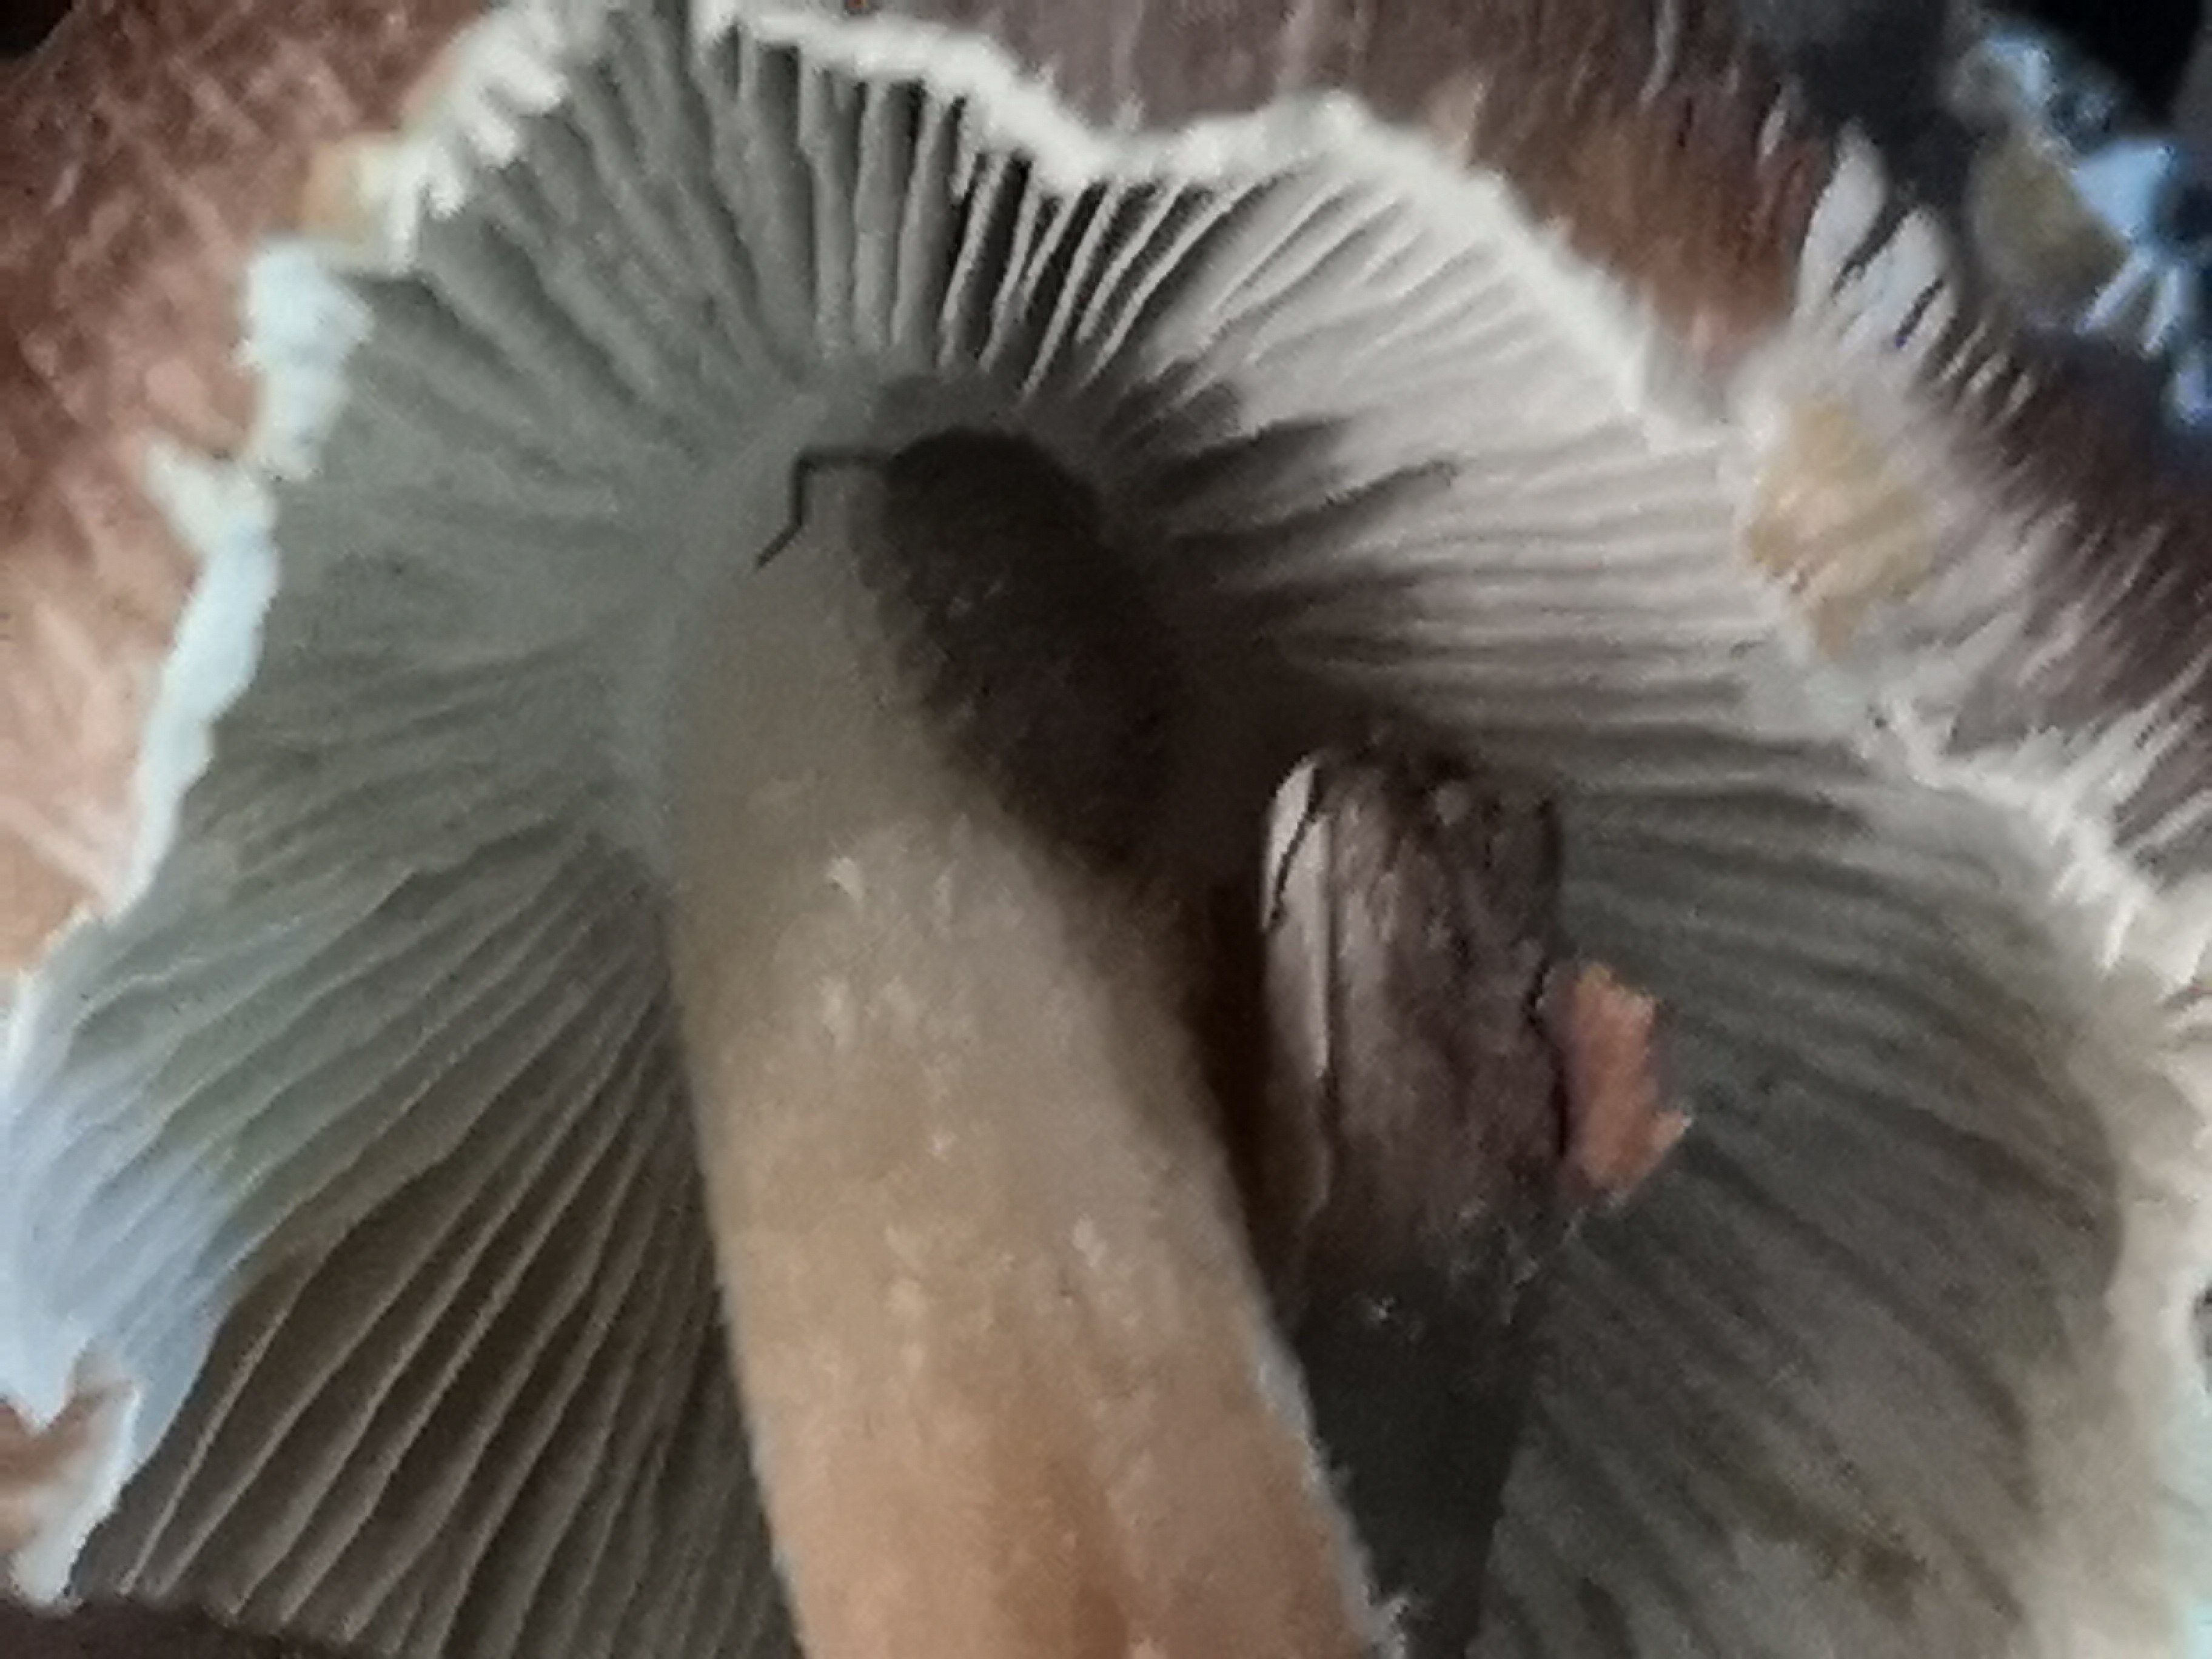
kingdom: Fungi
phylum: Basidiomycota
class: Agaricomycetes
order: Agaricales
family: Inocybaceae
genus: Inosperma
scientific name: Inosperma
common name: Trævlhat
